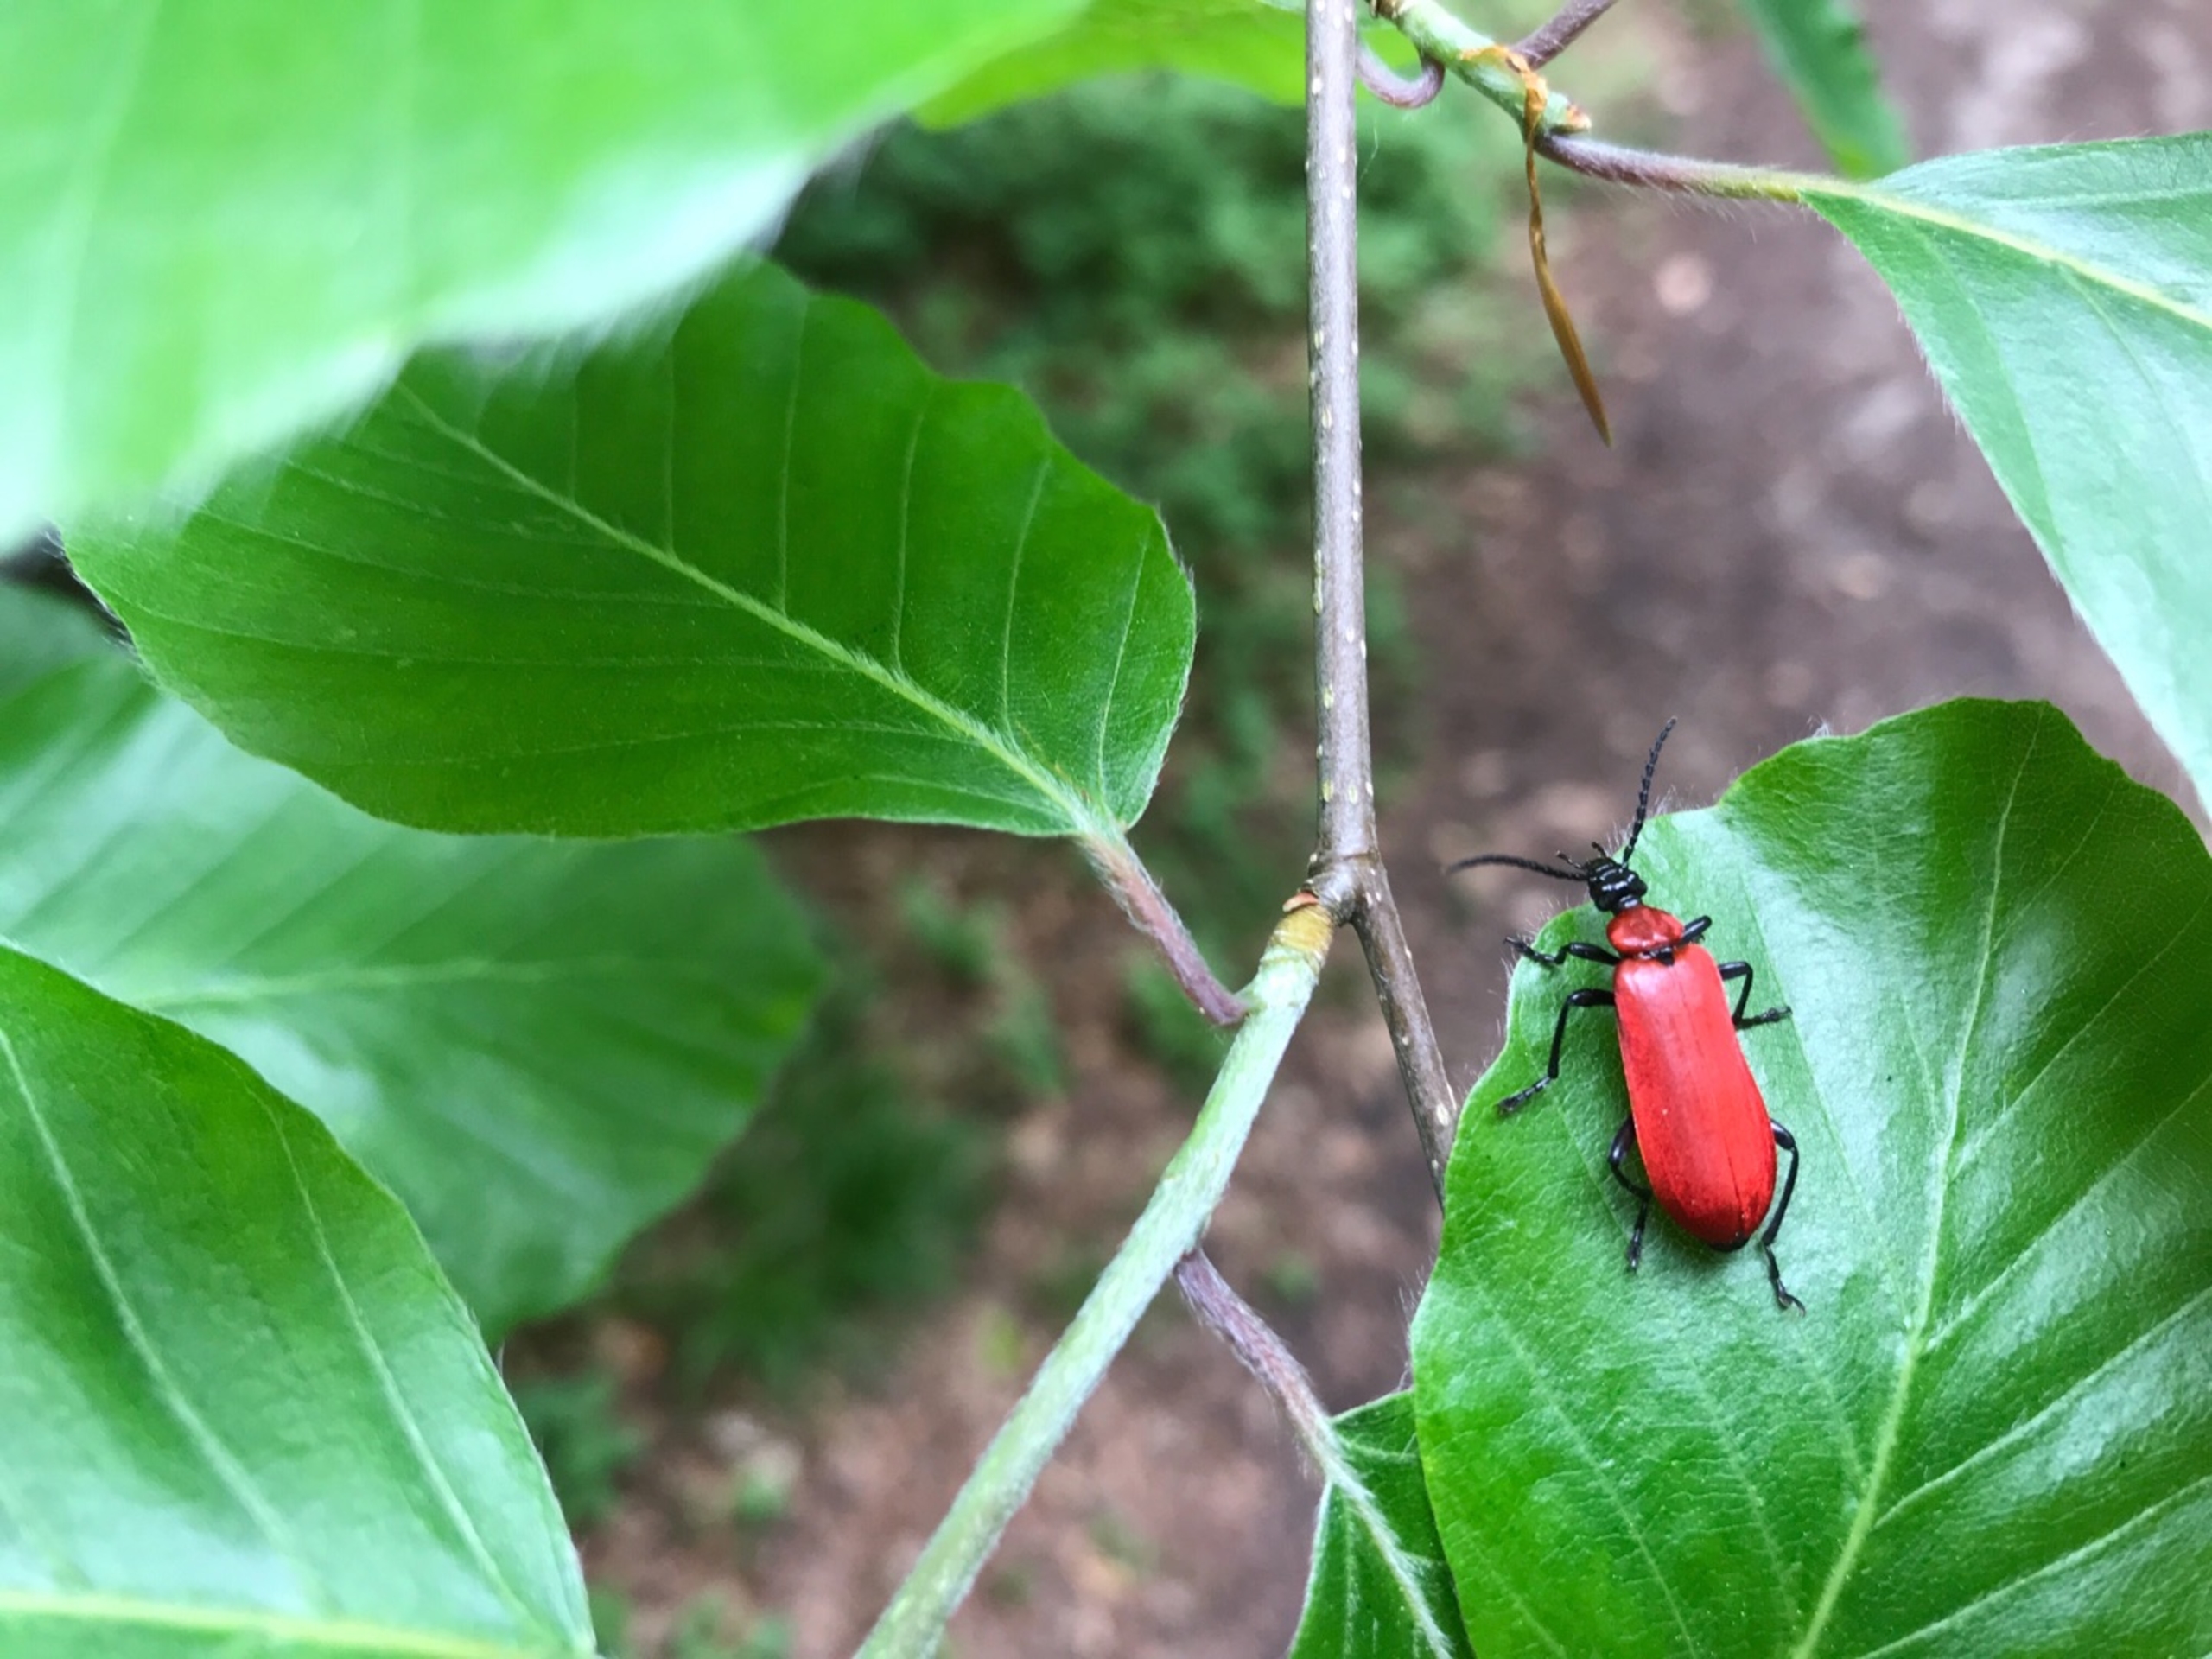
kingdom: Animalia
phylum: Arthropoda
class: Insecta
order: Coleoptera
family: Pyrochroidae
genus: Pyrochroa
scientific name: Pyrochroa coccinea
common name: Sorthovedet kardinalbille
